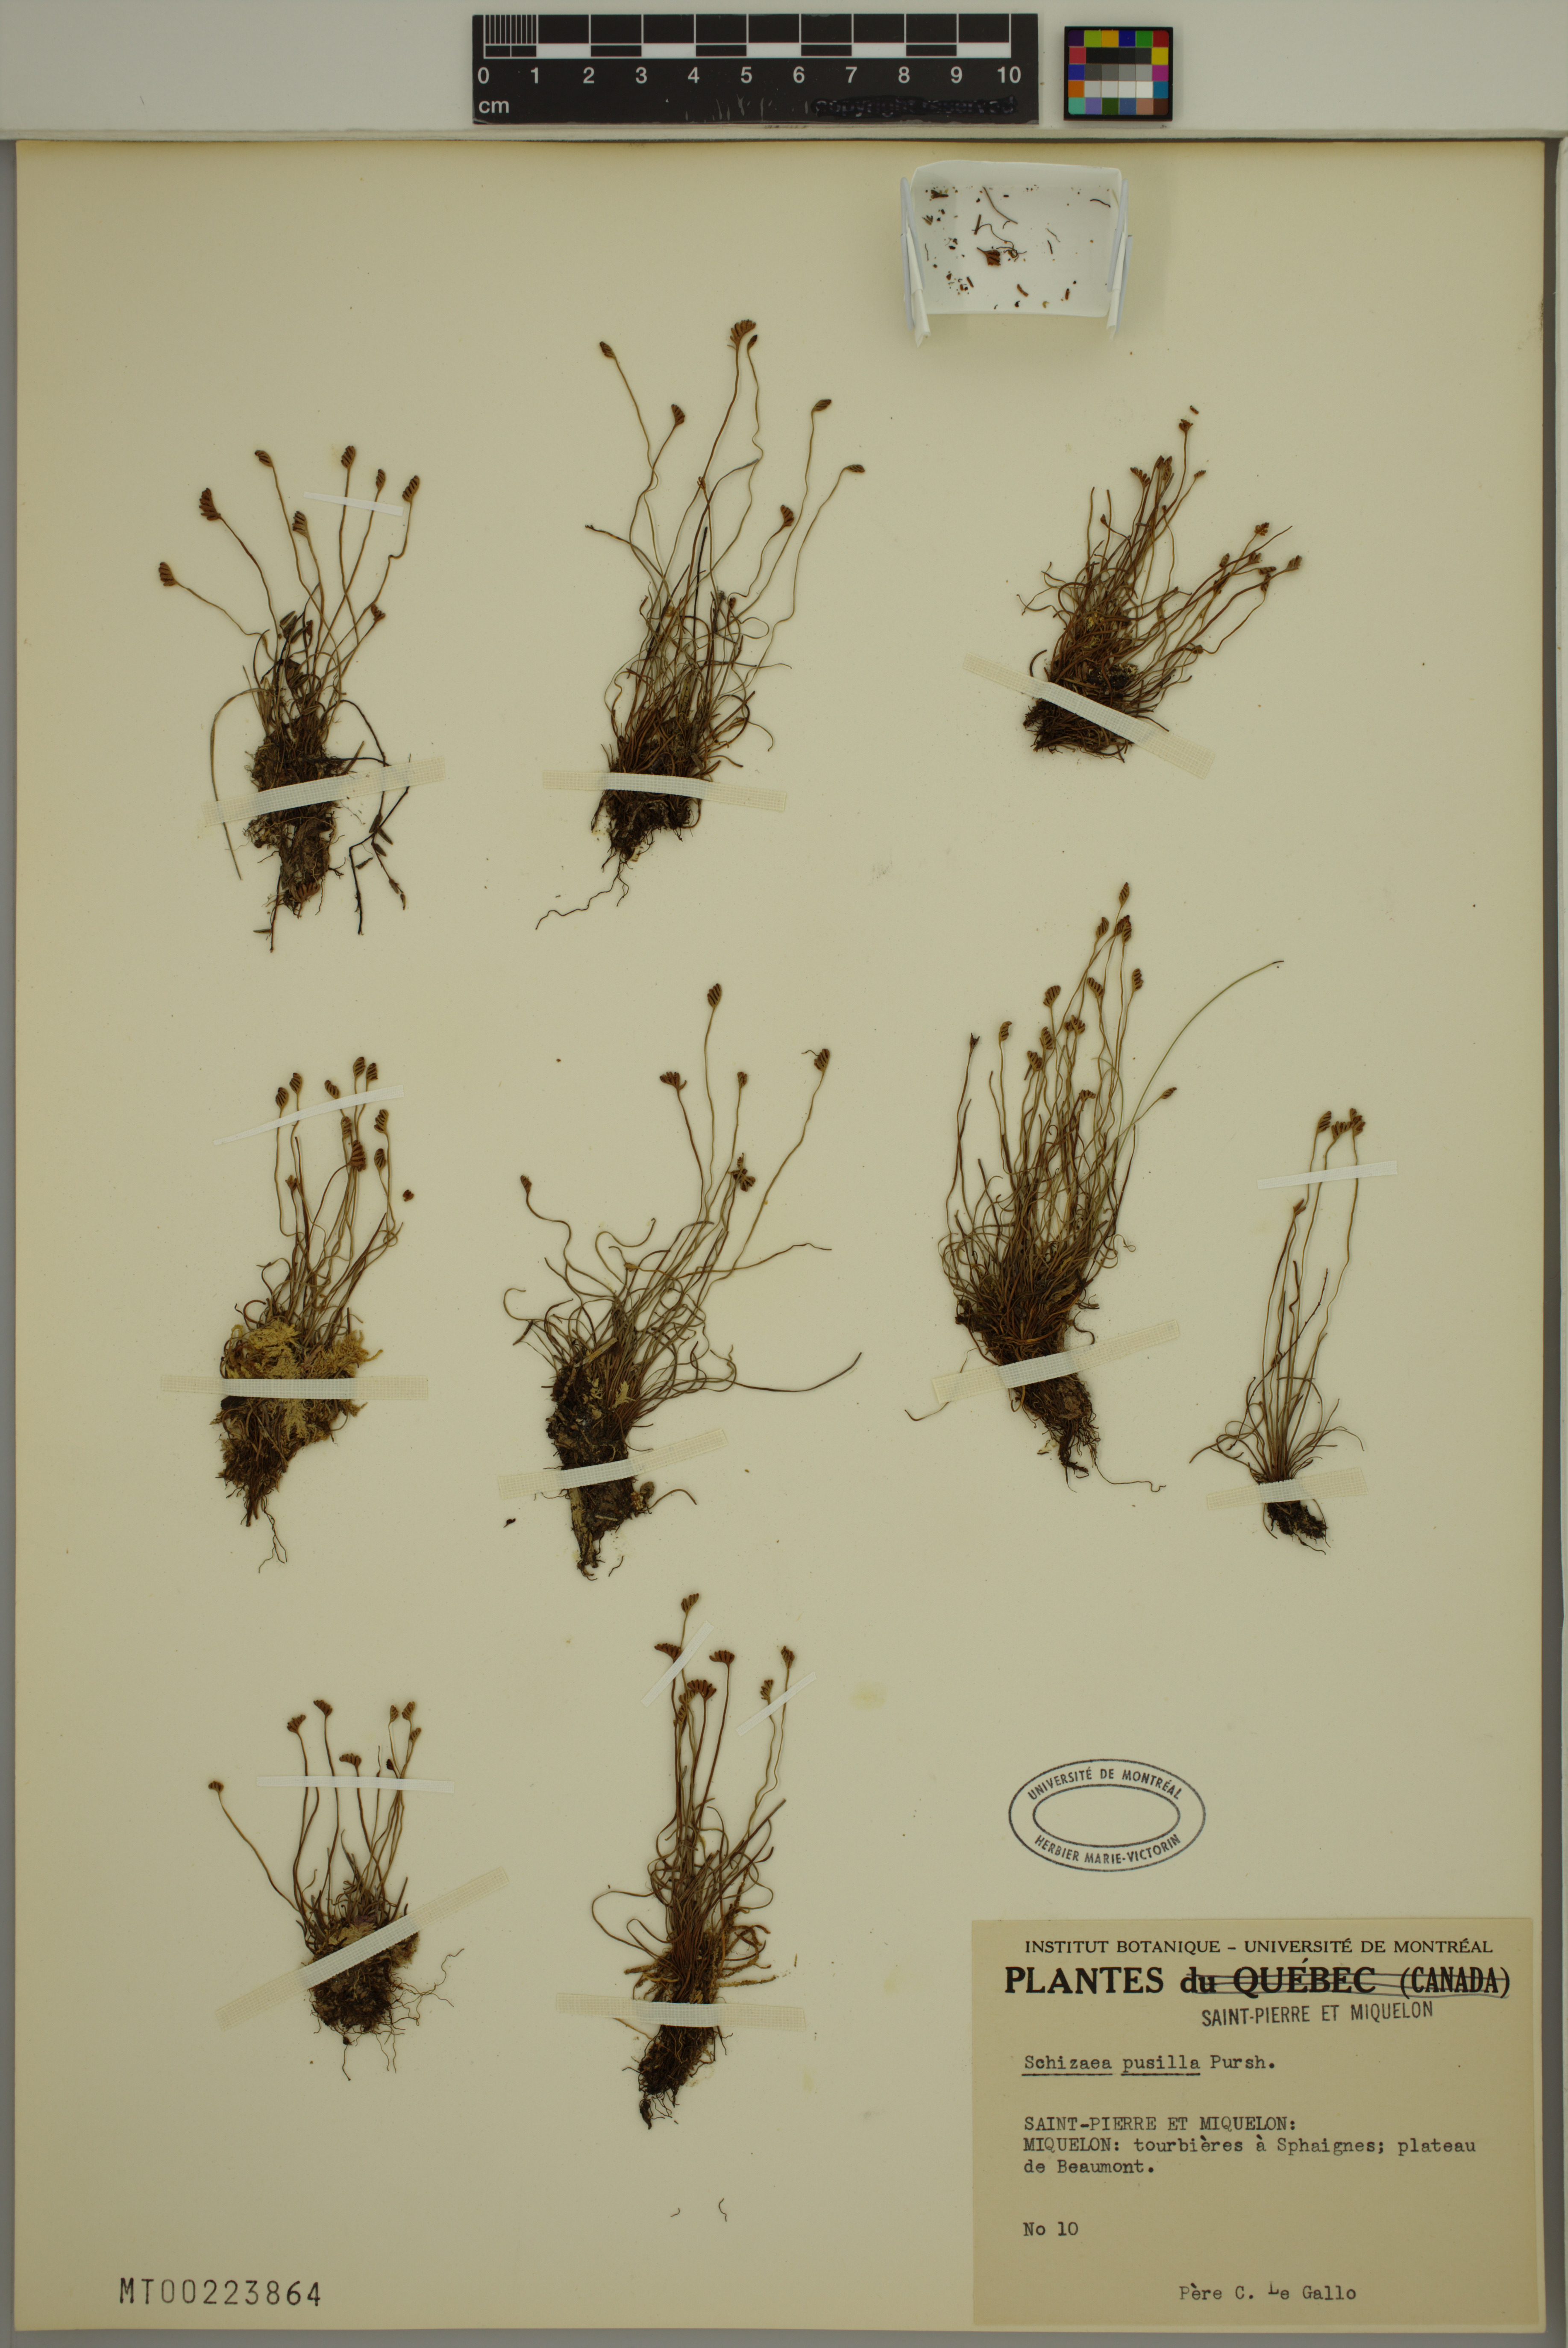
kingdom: Plantae
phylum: Tracheophyta
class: Polypodiopsida
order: Schizaeales
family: Schizaeaceae
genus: Schizaea
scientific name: Schizaea pusilla
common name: Curly-grass fern
